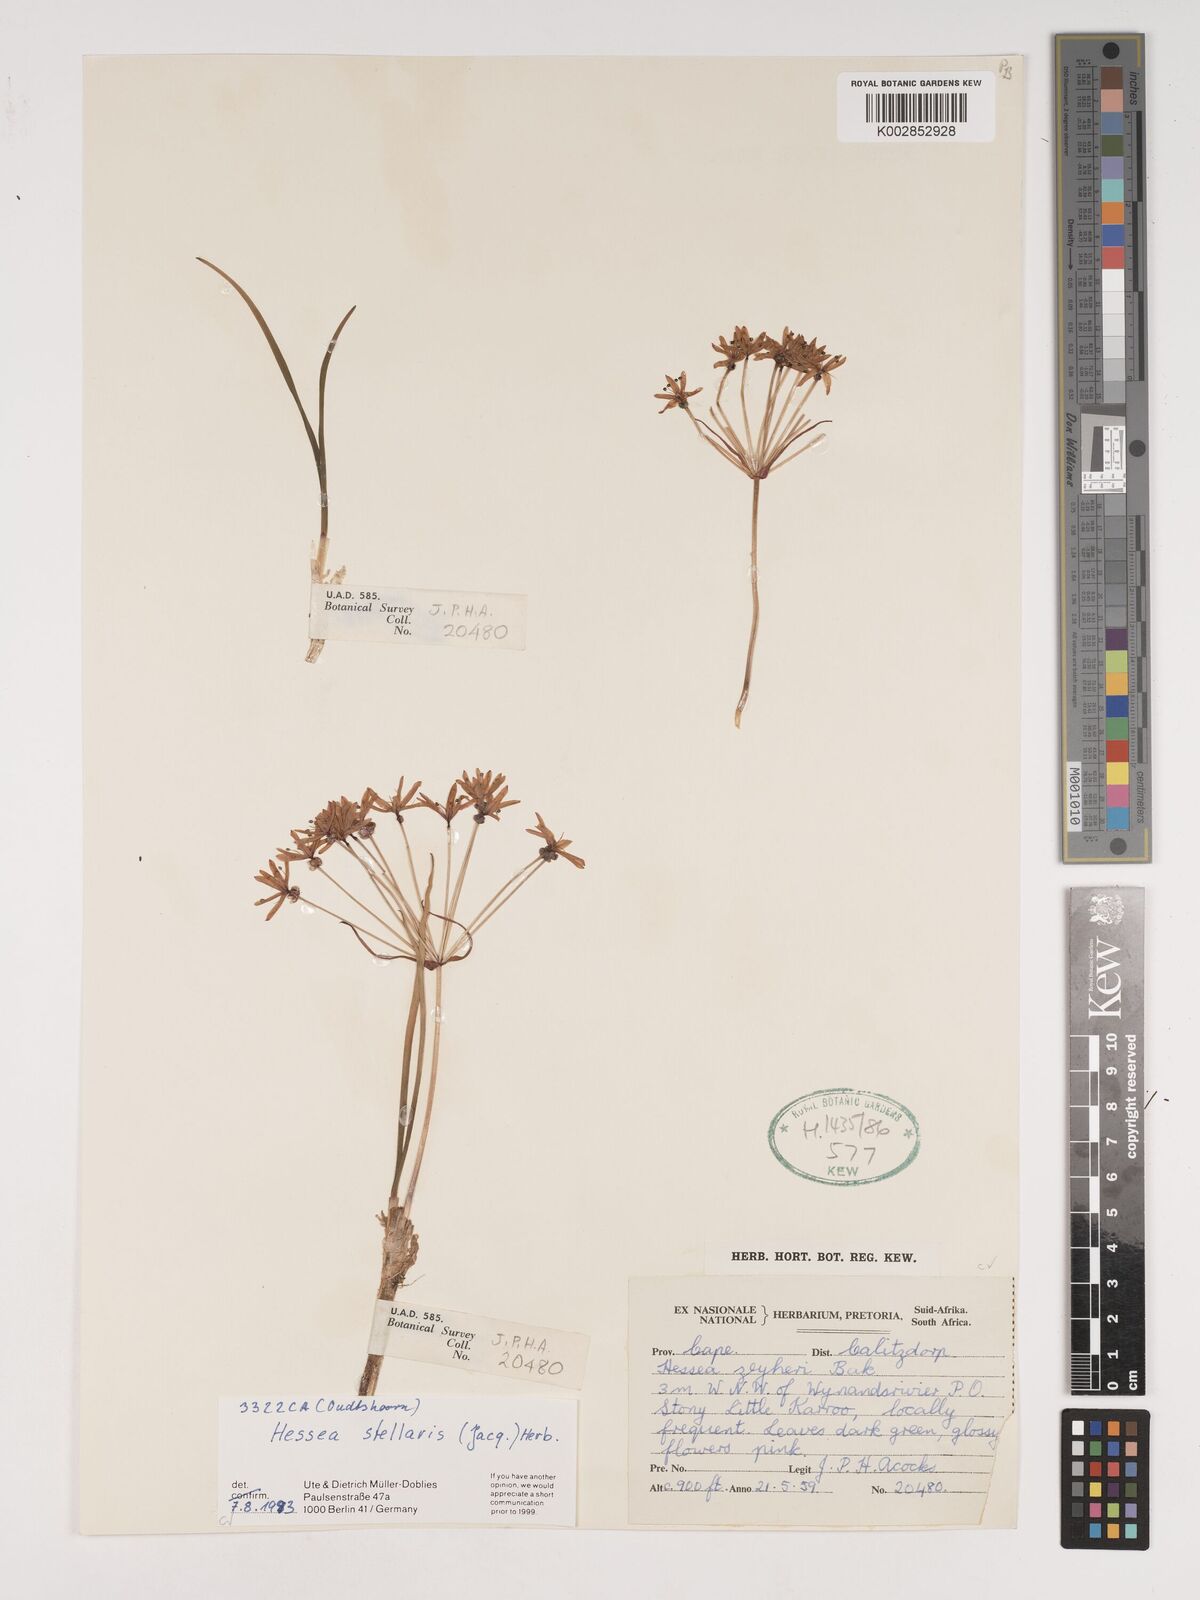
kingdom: Plantae
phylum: Tracheophyta
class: Liliopsida
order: Asparagales
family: Amaryllidaceae
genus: Hessea
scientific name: Hessea stellaris
